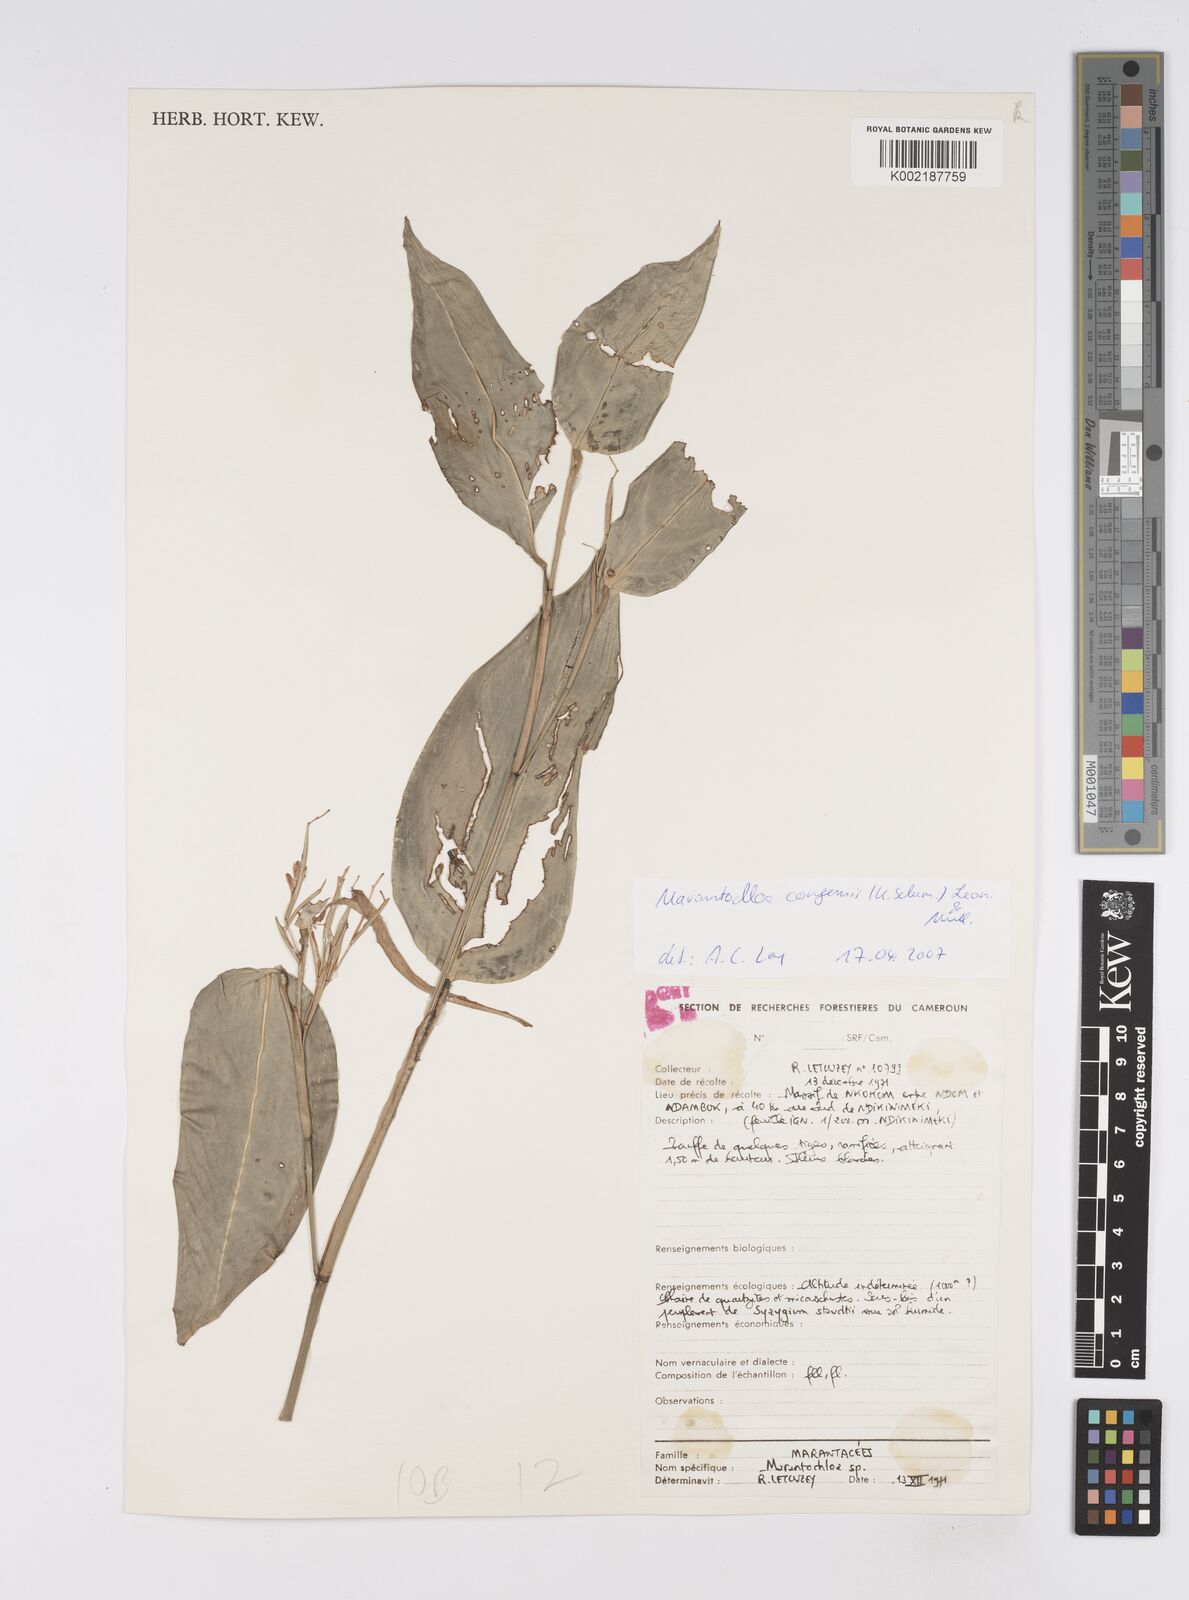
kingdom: Plantae
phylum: Tracheophyta
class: Liliopsida
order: Zingiberales
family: Marantaceae
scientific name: Marantaceae
